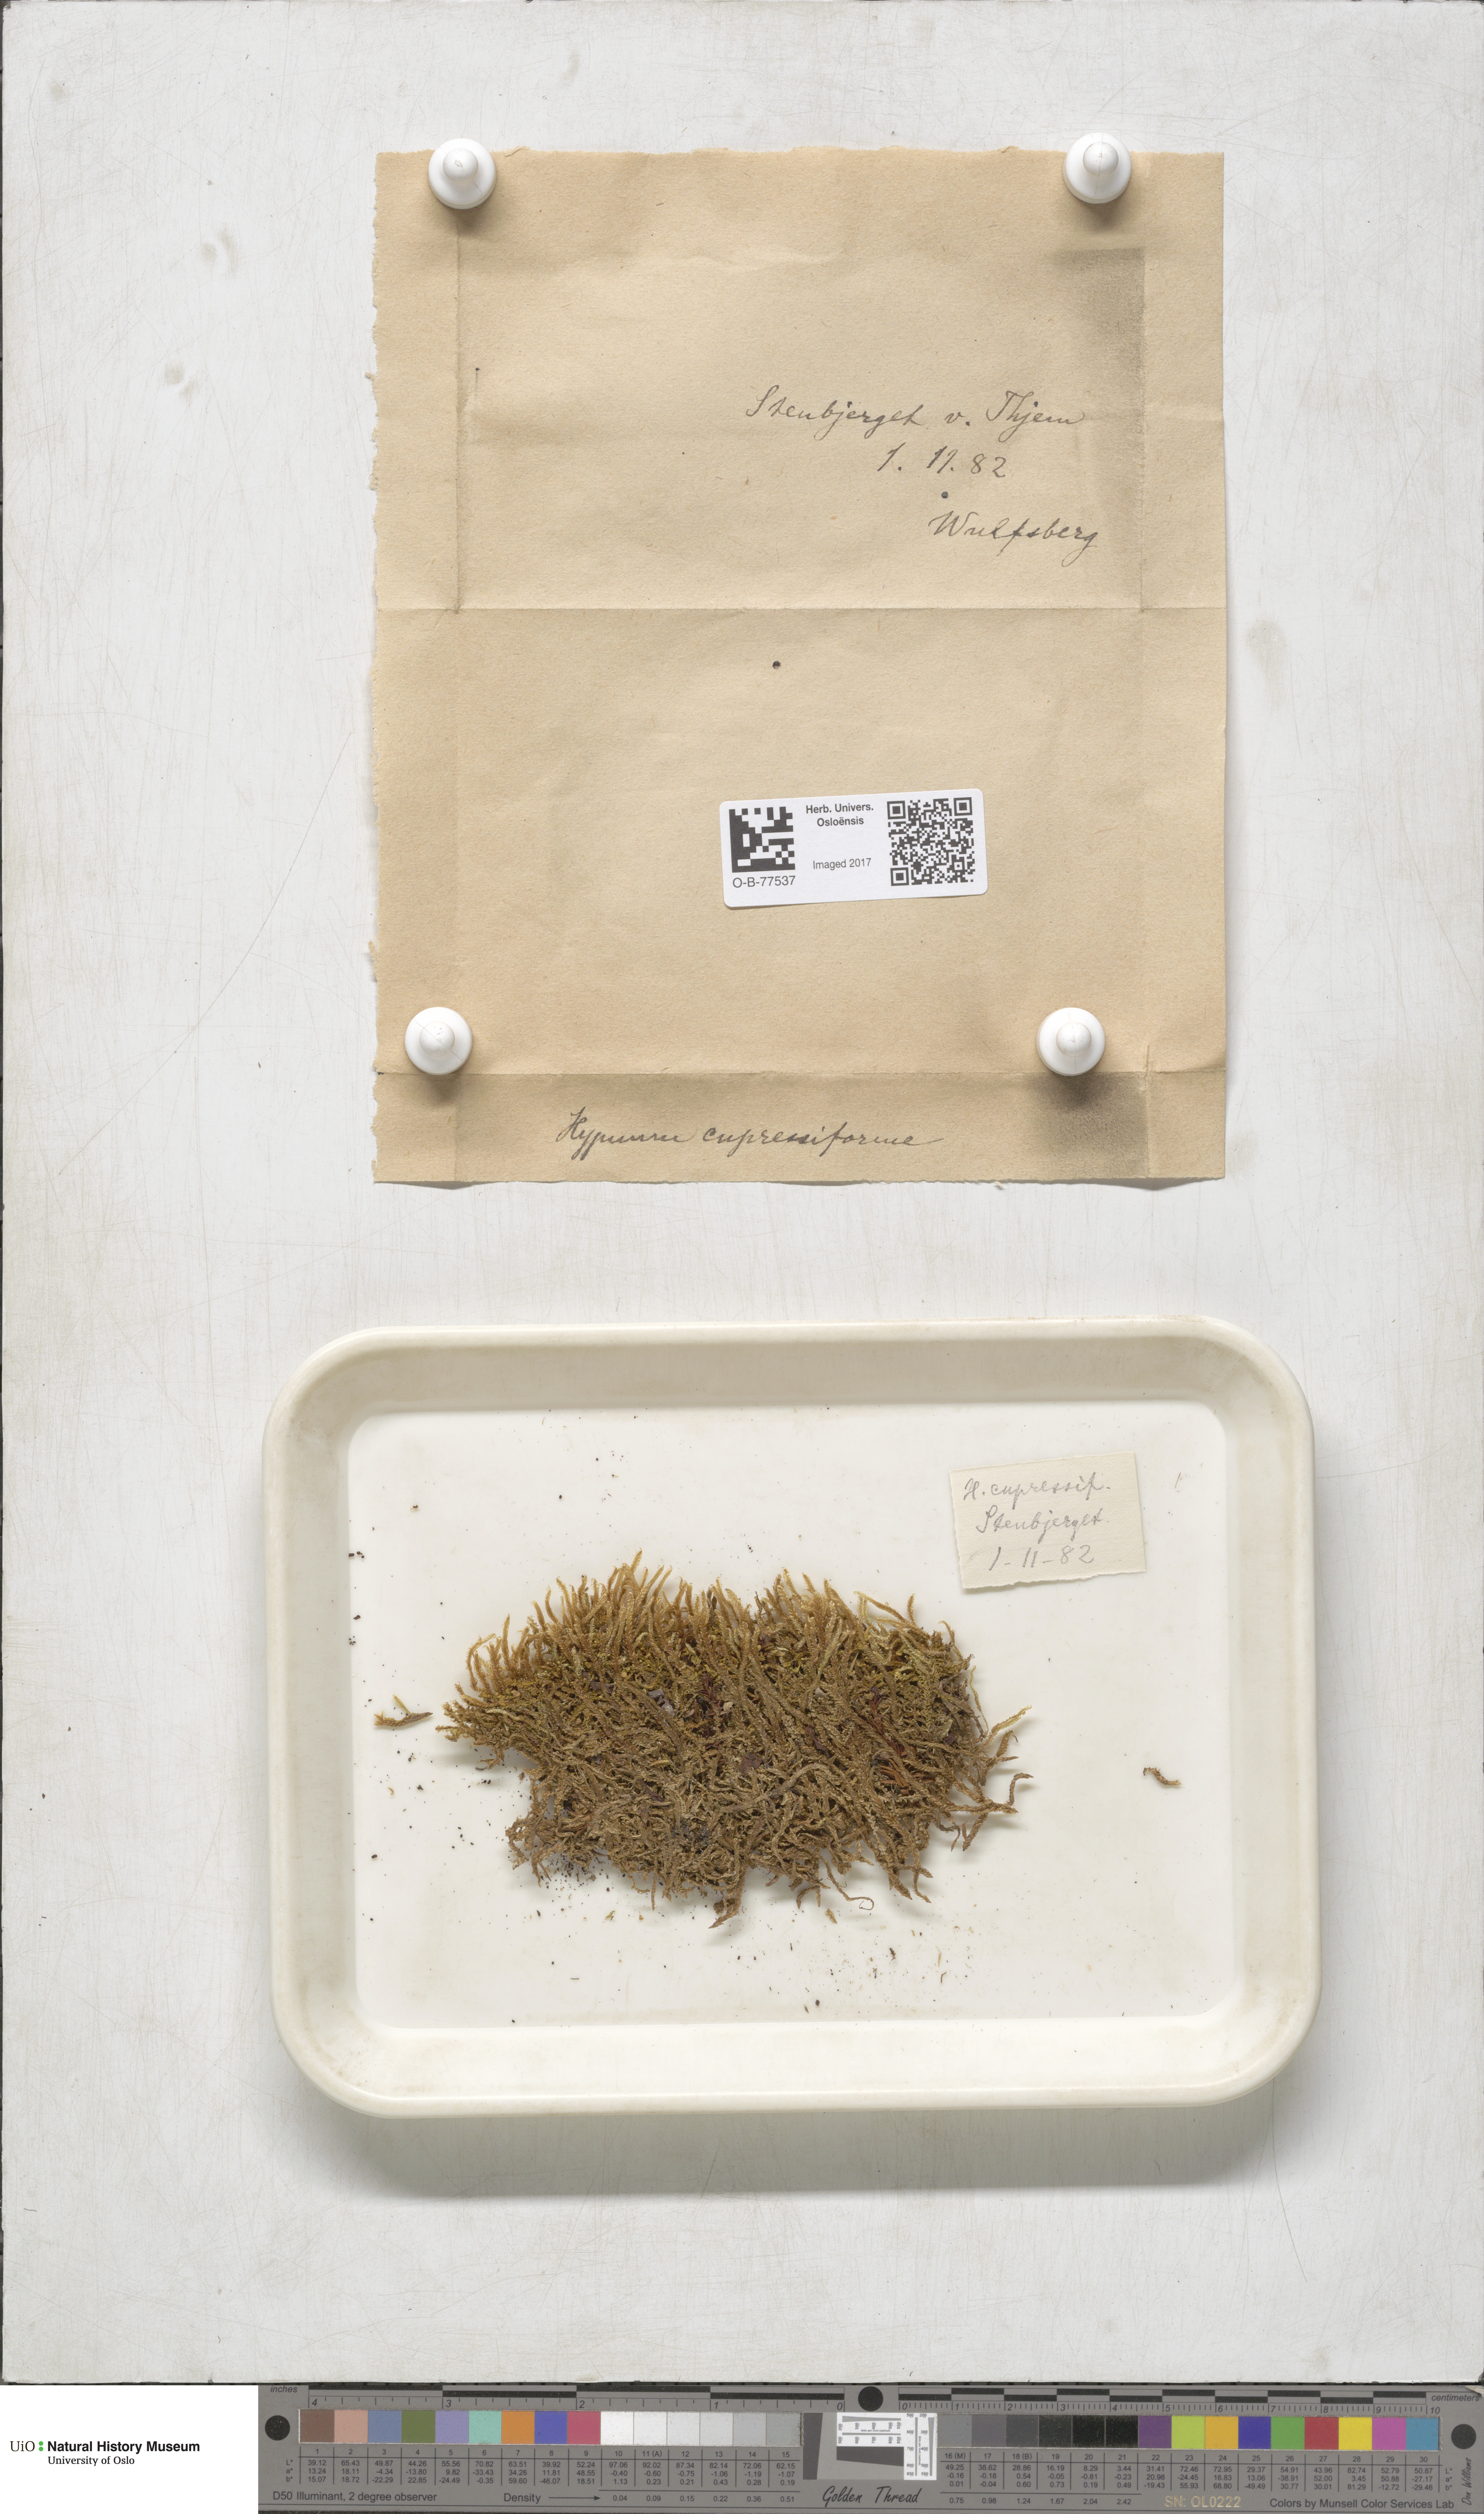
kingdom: Plantae
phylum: Bryophyta
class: Bryopsida
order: Hypnales
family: Hypnaceae
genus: Hypnum
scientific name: Hypnum cupressiforme
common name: Cypress-leaved plait-moss
